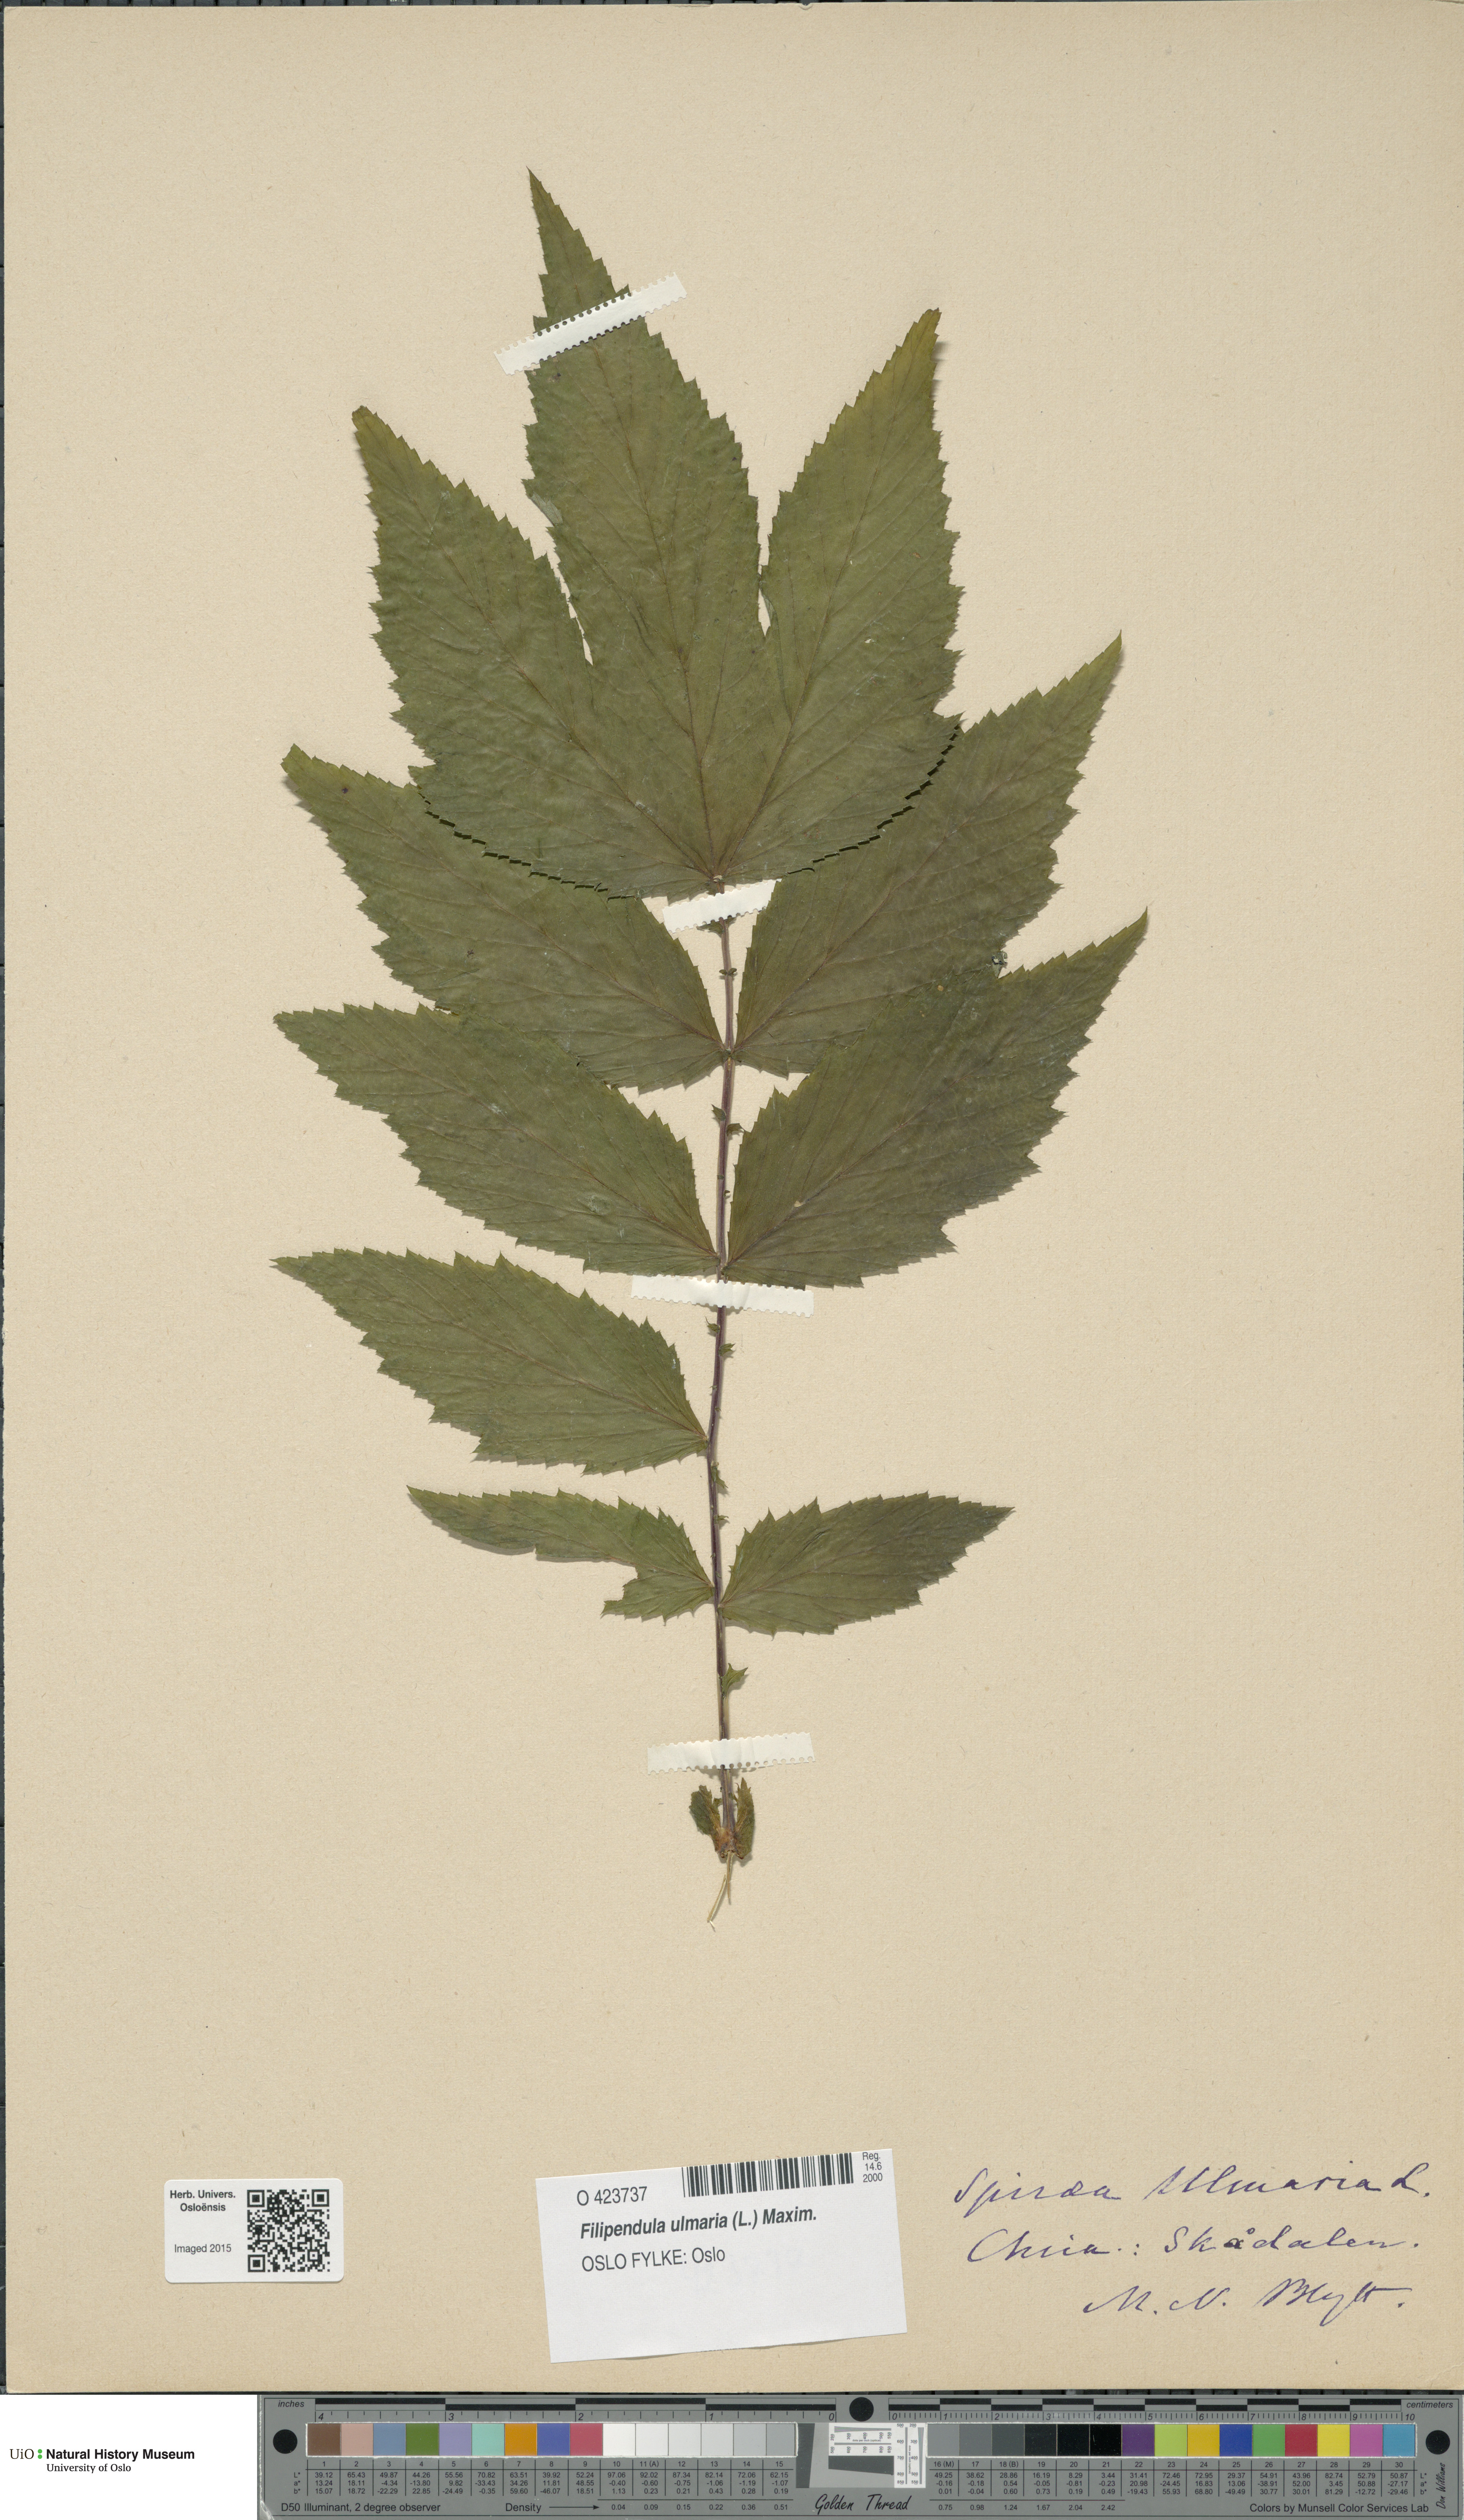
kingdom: Plantae
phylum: Tracheophyta
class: Magnoliopsida
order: Rosales
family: Rosaceae
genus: Filipendula
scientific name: Filipendula ulmaria
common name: Meadowsweet
